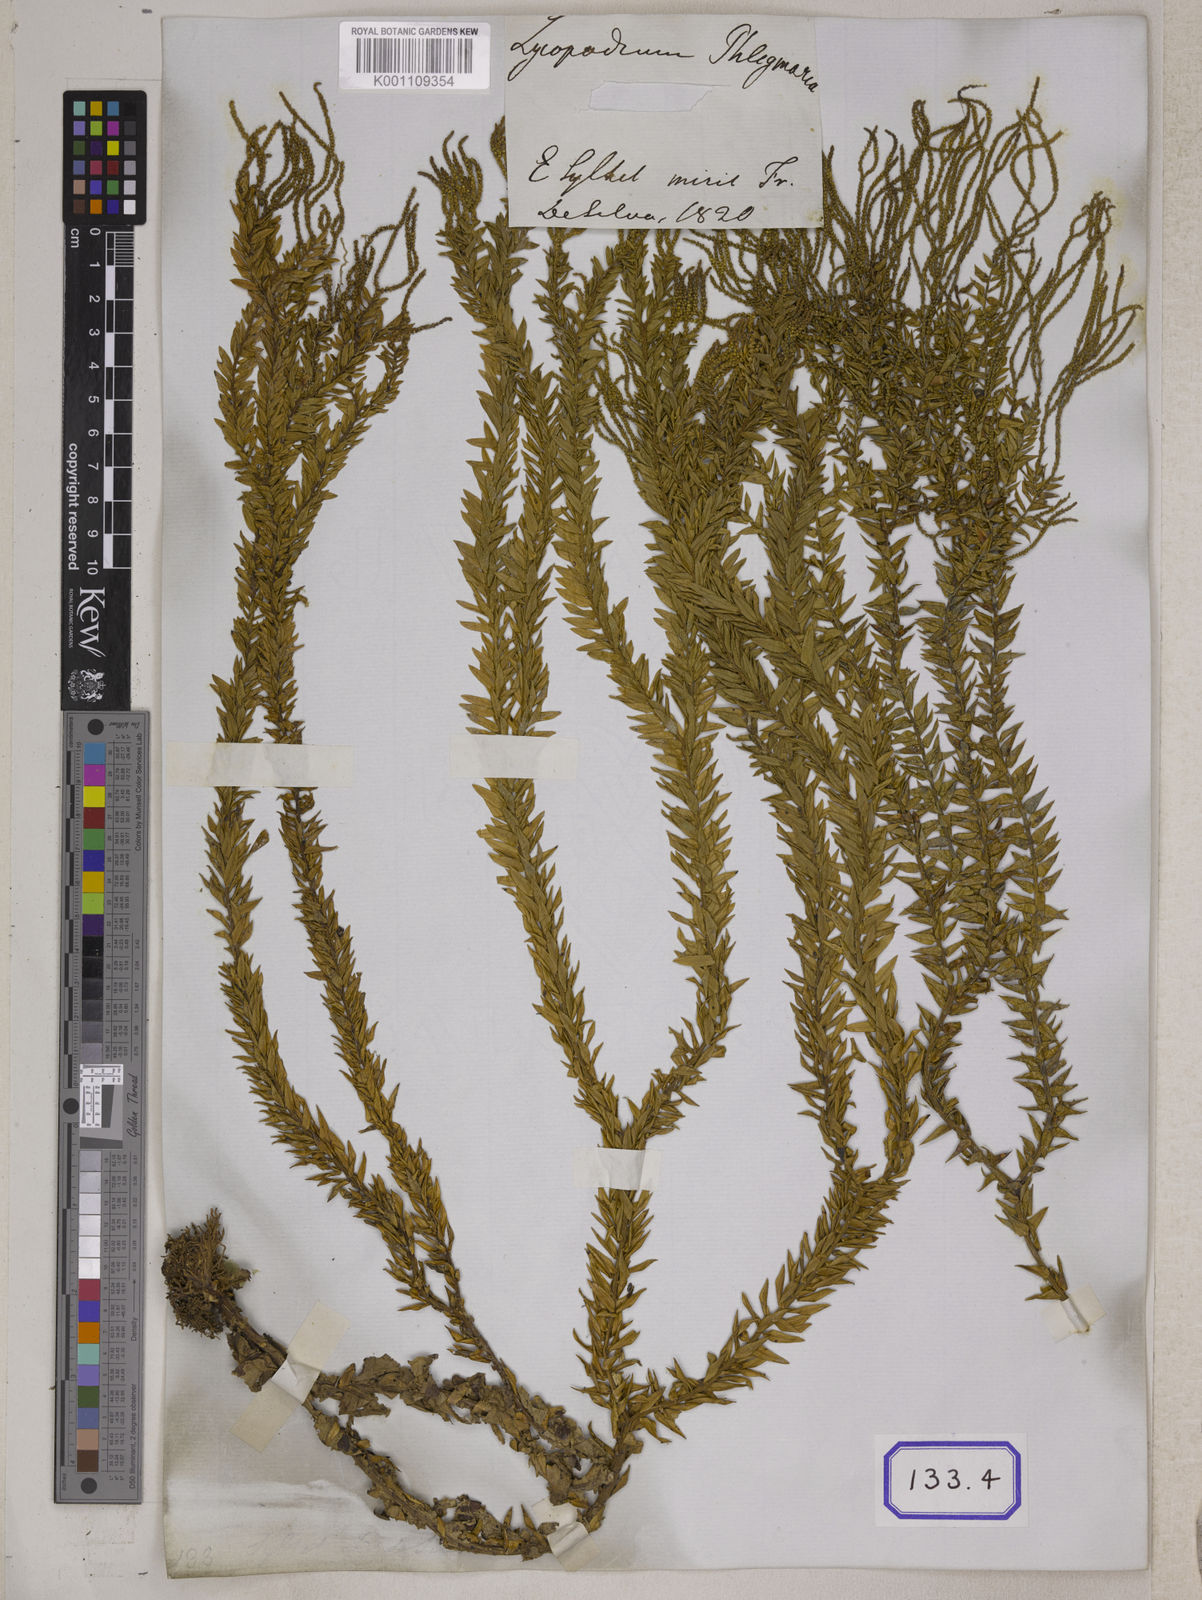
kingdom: Plantae
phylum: Tracheophyta
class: Lycopodiopsida
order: Lycopodiales
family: Lycopodiaceae
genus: Phlegmariurus
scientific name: Phlegmariurus phlegmaria
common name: Coarse tassel-fern
